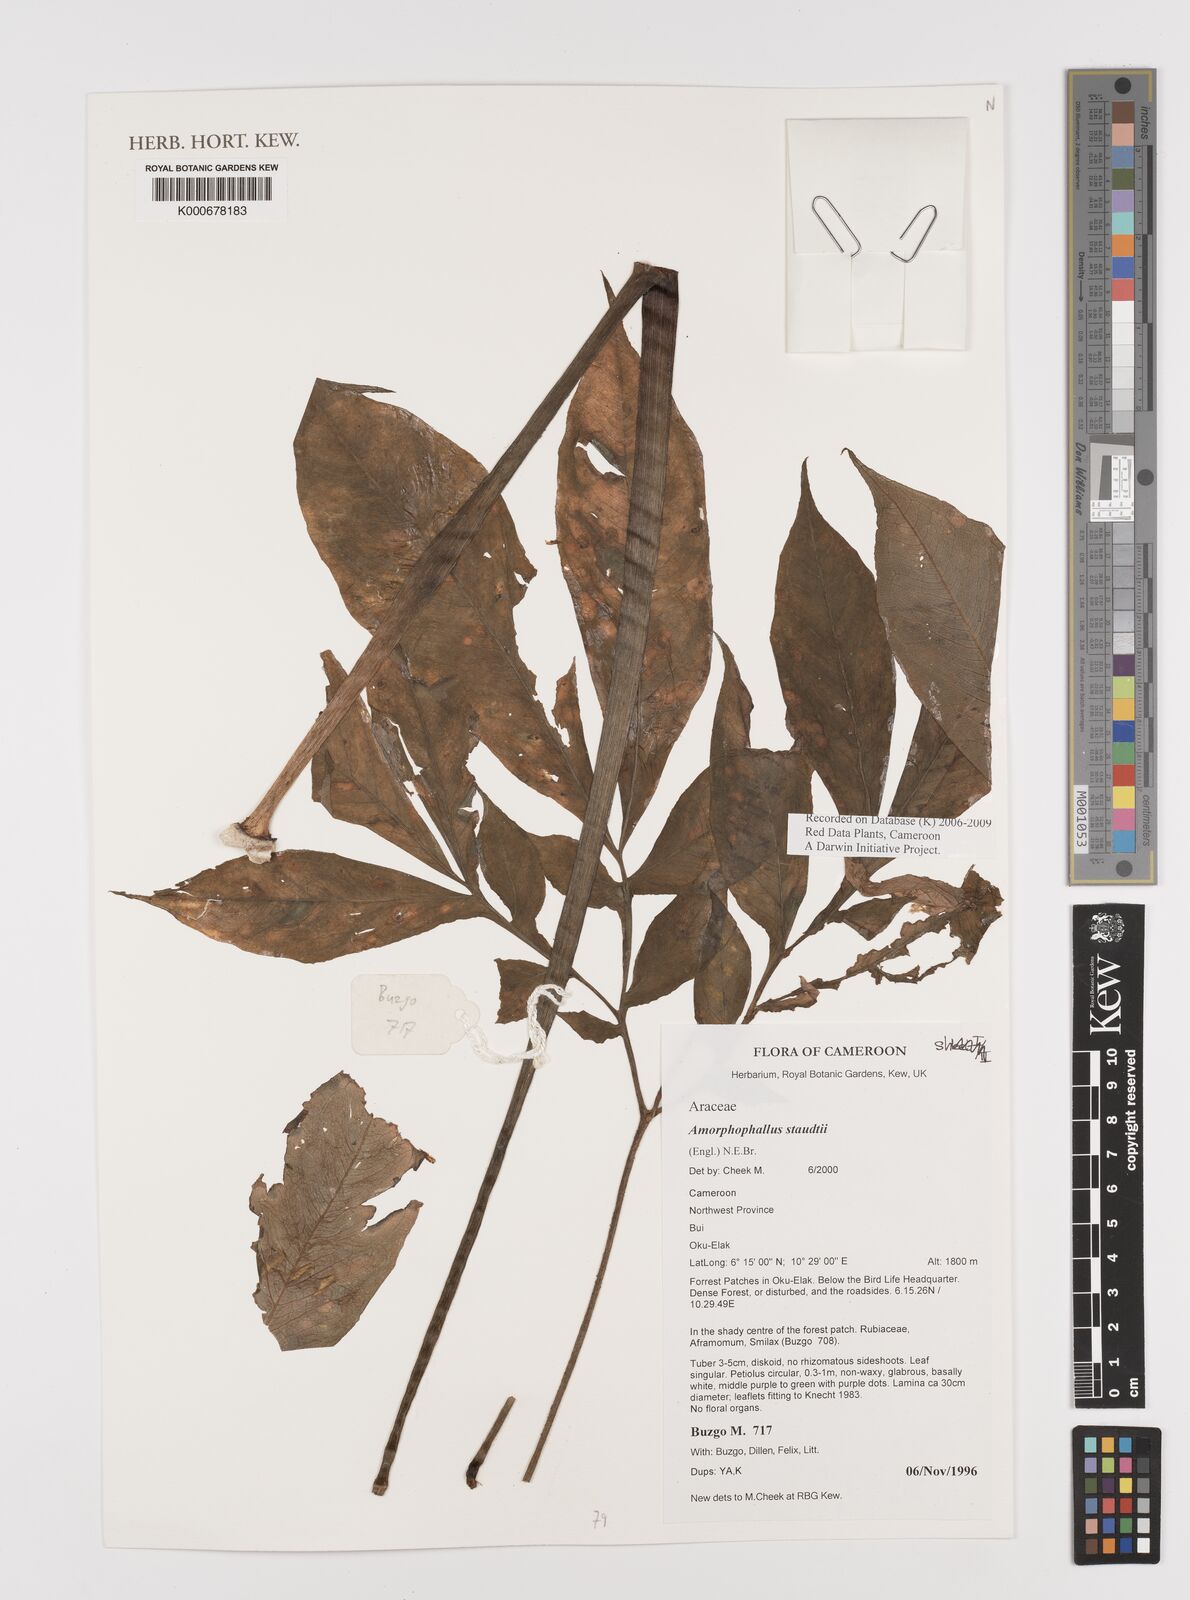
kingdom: Plantae
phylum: Tracheophyta
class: Liliopsida
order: Alismatales
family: Araceae
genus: Amorphophallus
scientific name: Amorphophallus staudtii
